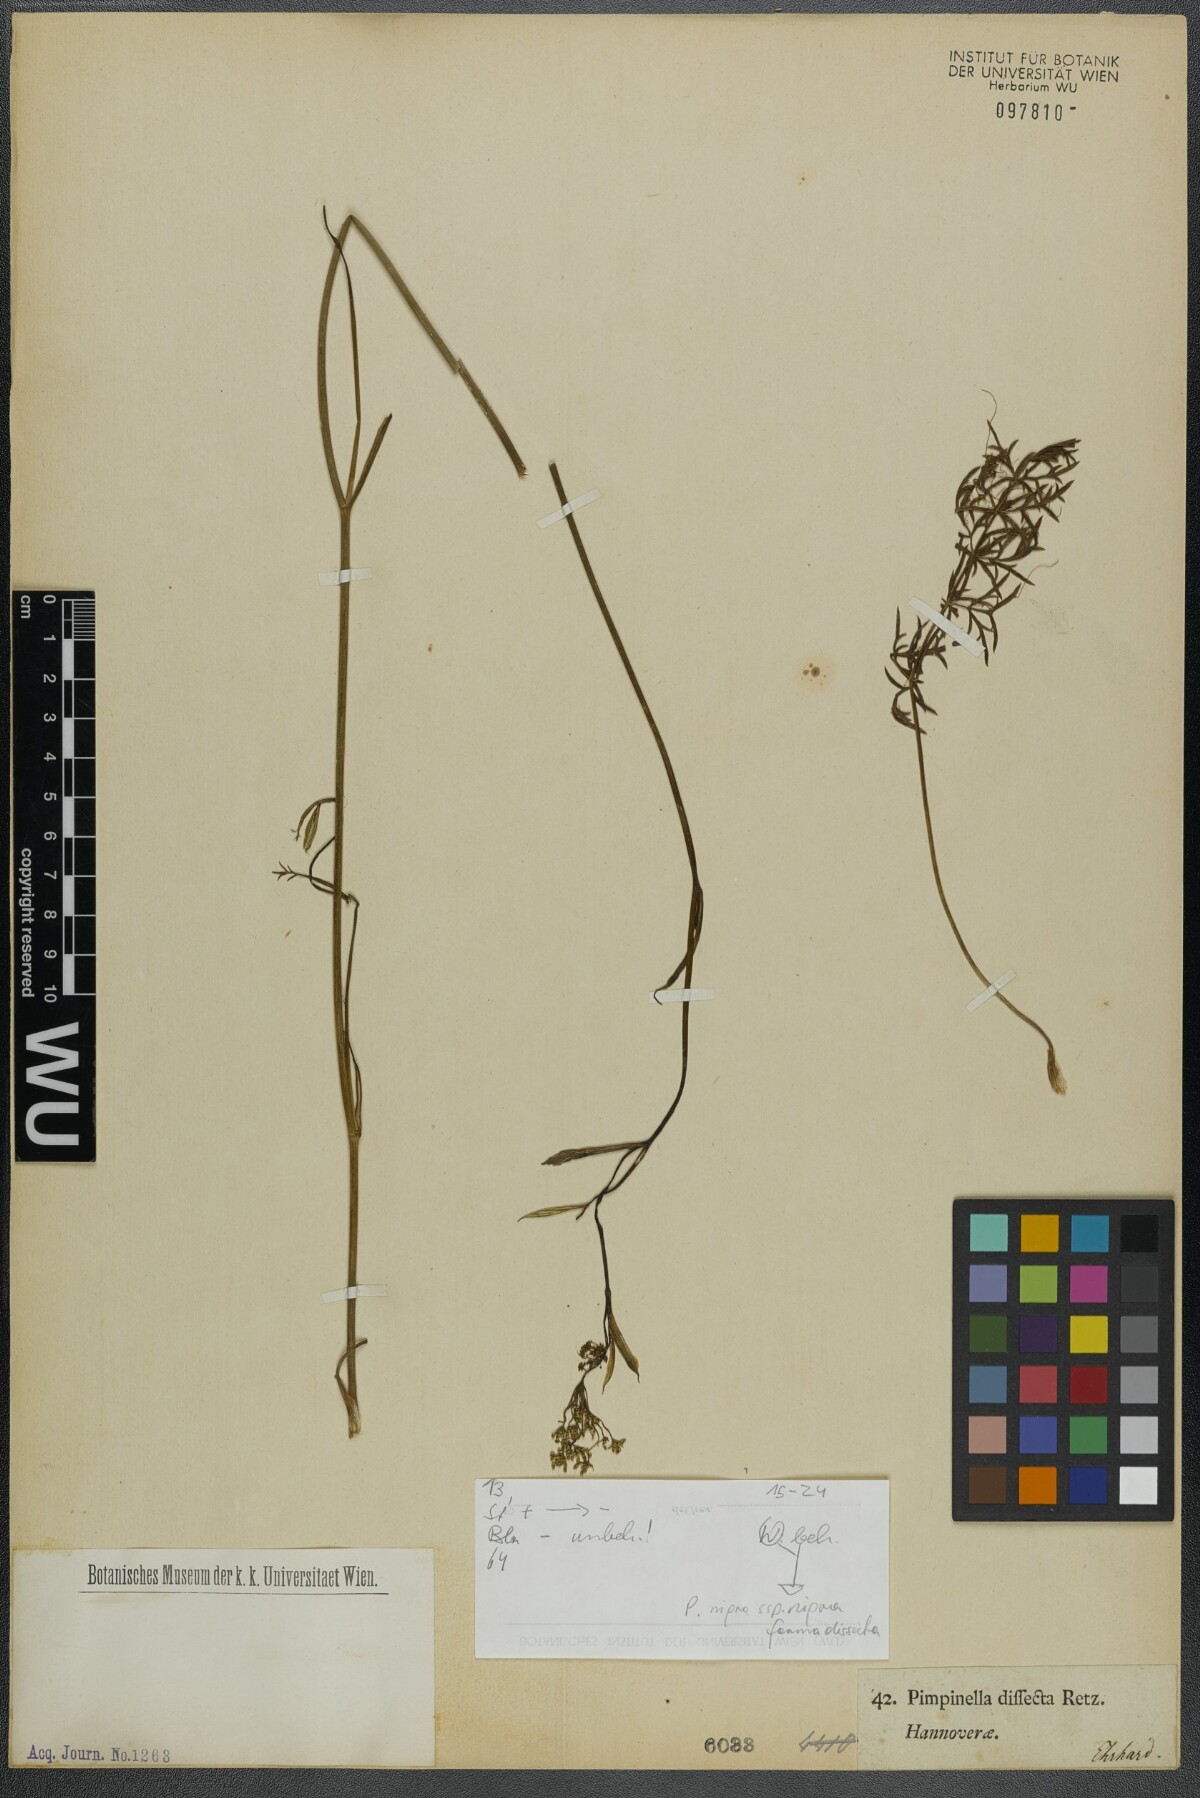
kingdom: Plantae
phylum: Tracheophyta
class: Magnoliopsida
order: Apiales
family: Apiaceae
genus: Pimpinella
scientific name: Pimpinella saxifraga
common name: Burnet-saxifrage
